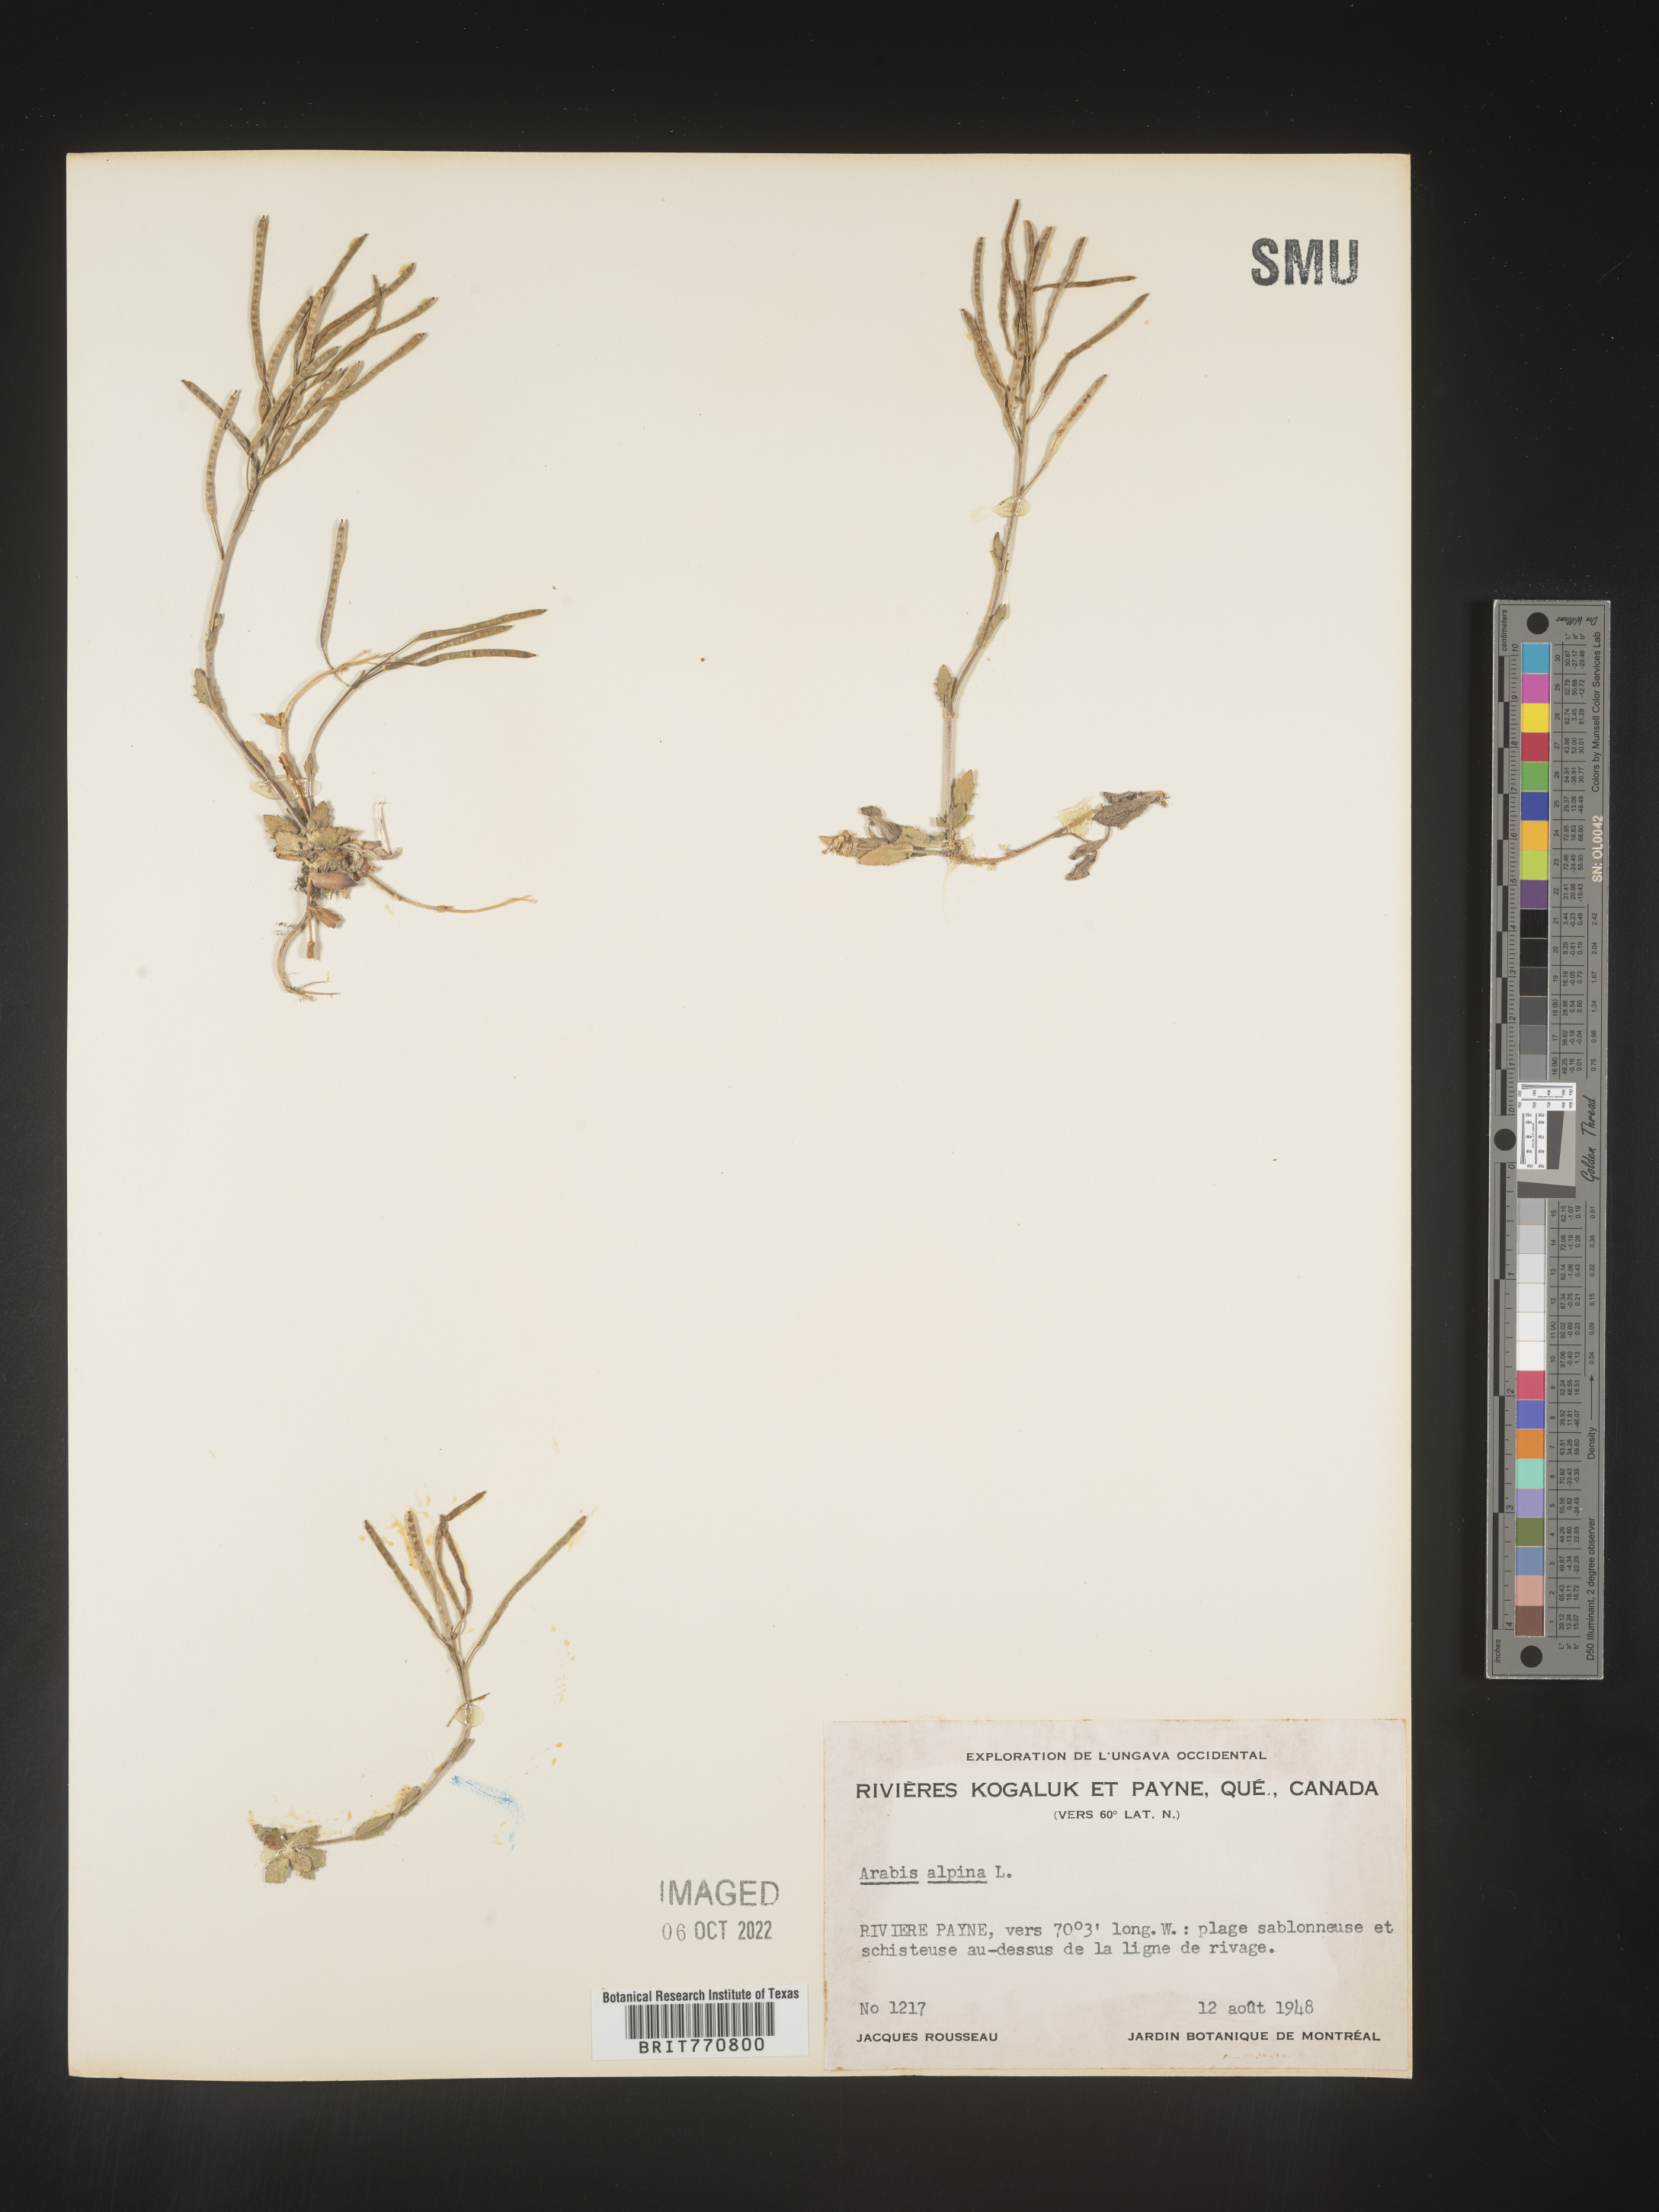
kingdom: Plantae
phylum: Tracheophyta
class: Magnoliopsida
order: Brassicales
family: Brassicaceae
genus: Arabis
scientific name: Arabis
